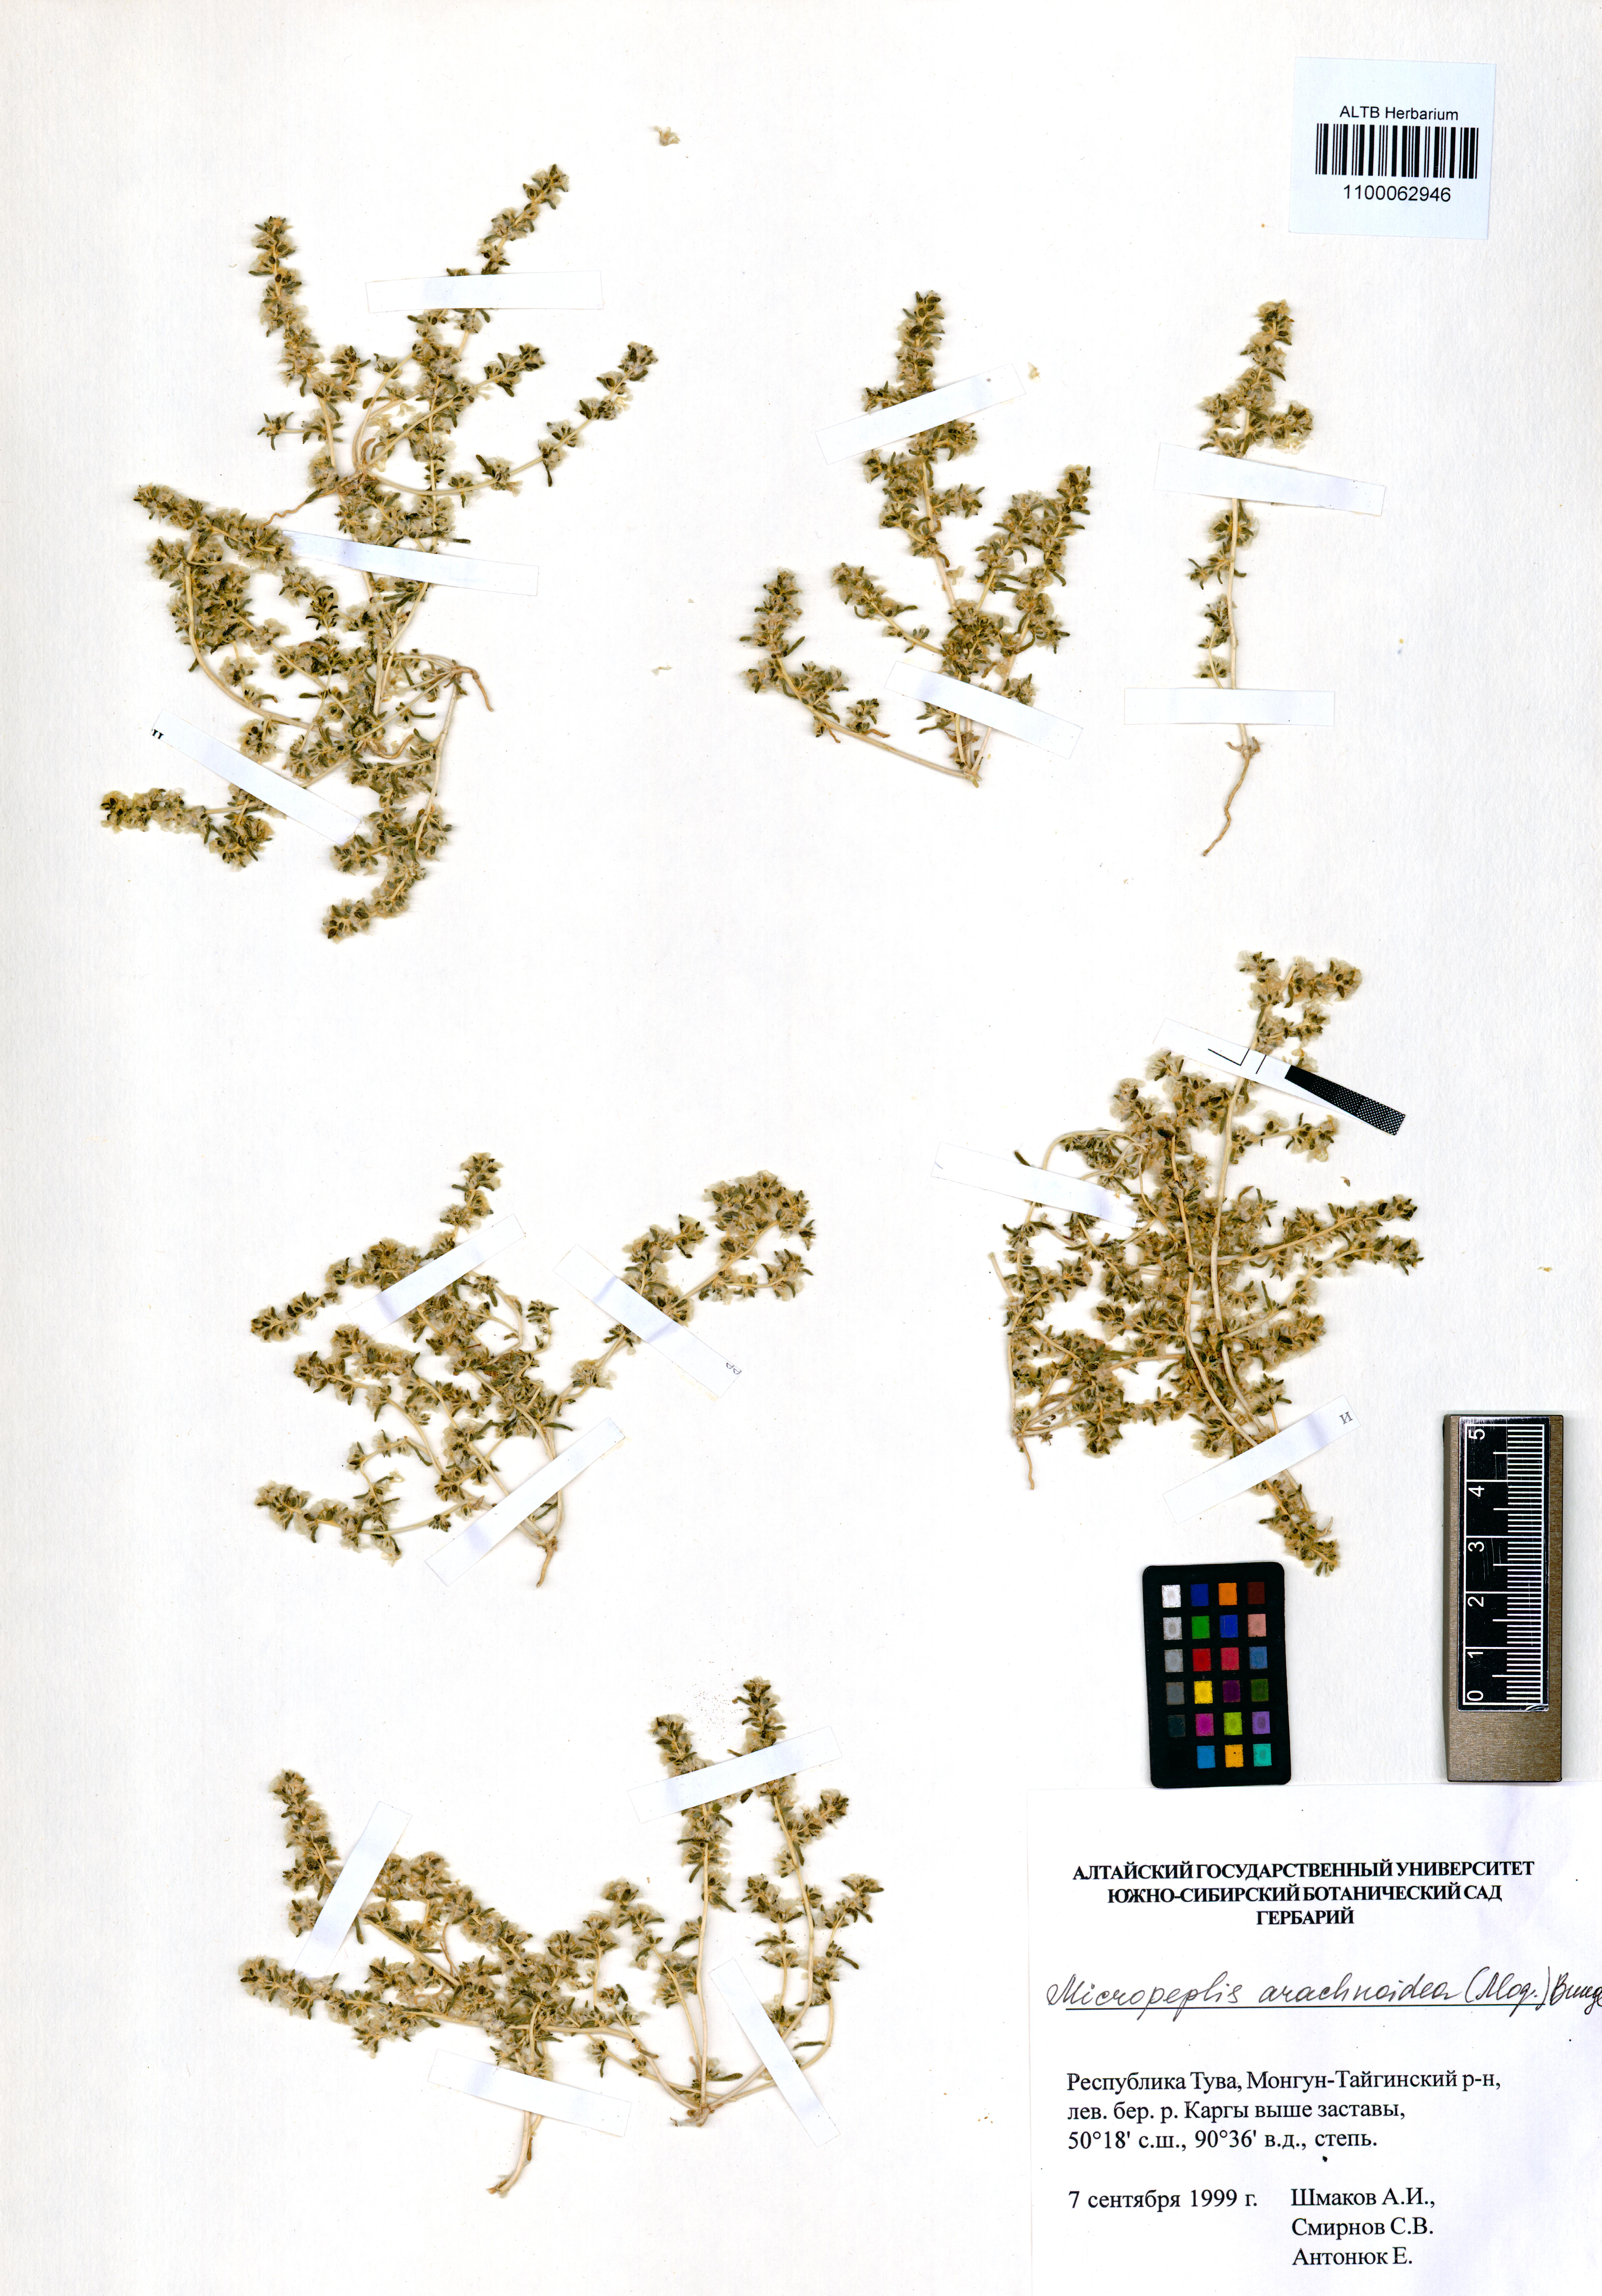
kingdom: Plantae
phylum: Tracheophyta
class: Magnoliopsida
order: Caryophyllales
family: Amaranthaceae
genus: Halogeton
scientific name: Halogeton arachnoideus
